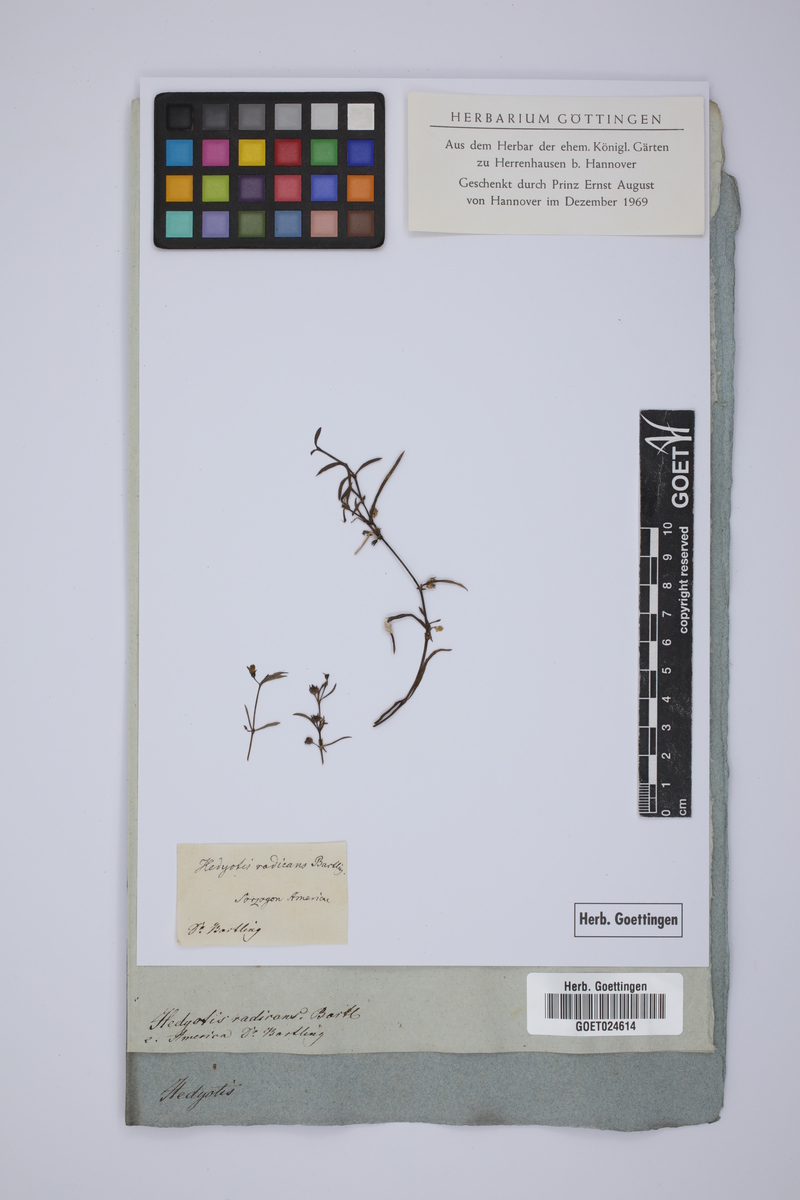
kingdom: Plantae
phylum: Tracheophyta
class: Magnoliopsida
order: Gentianales
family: Rubiaceae
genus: Scleromitrion
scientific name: Scleromitrion diffusum
